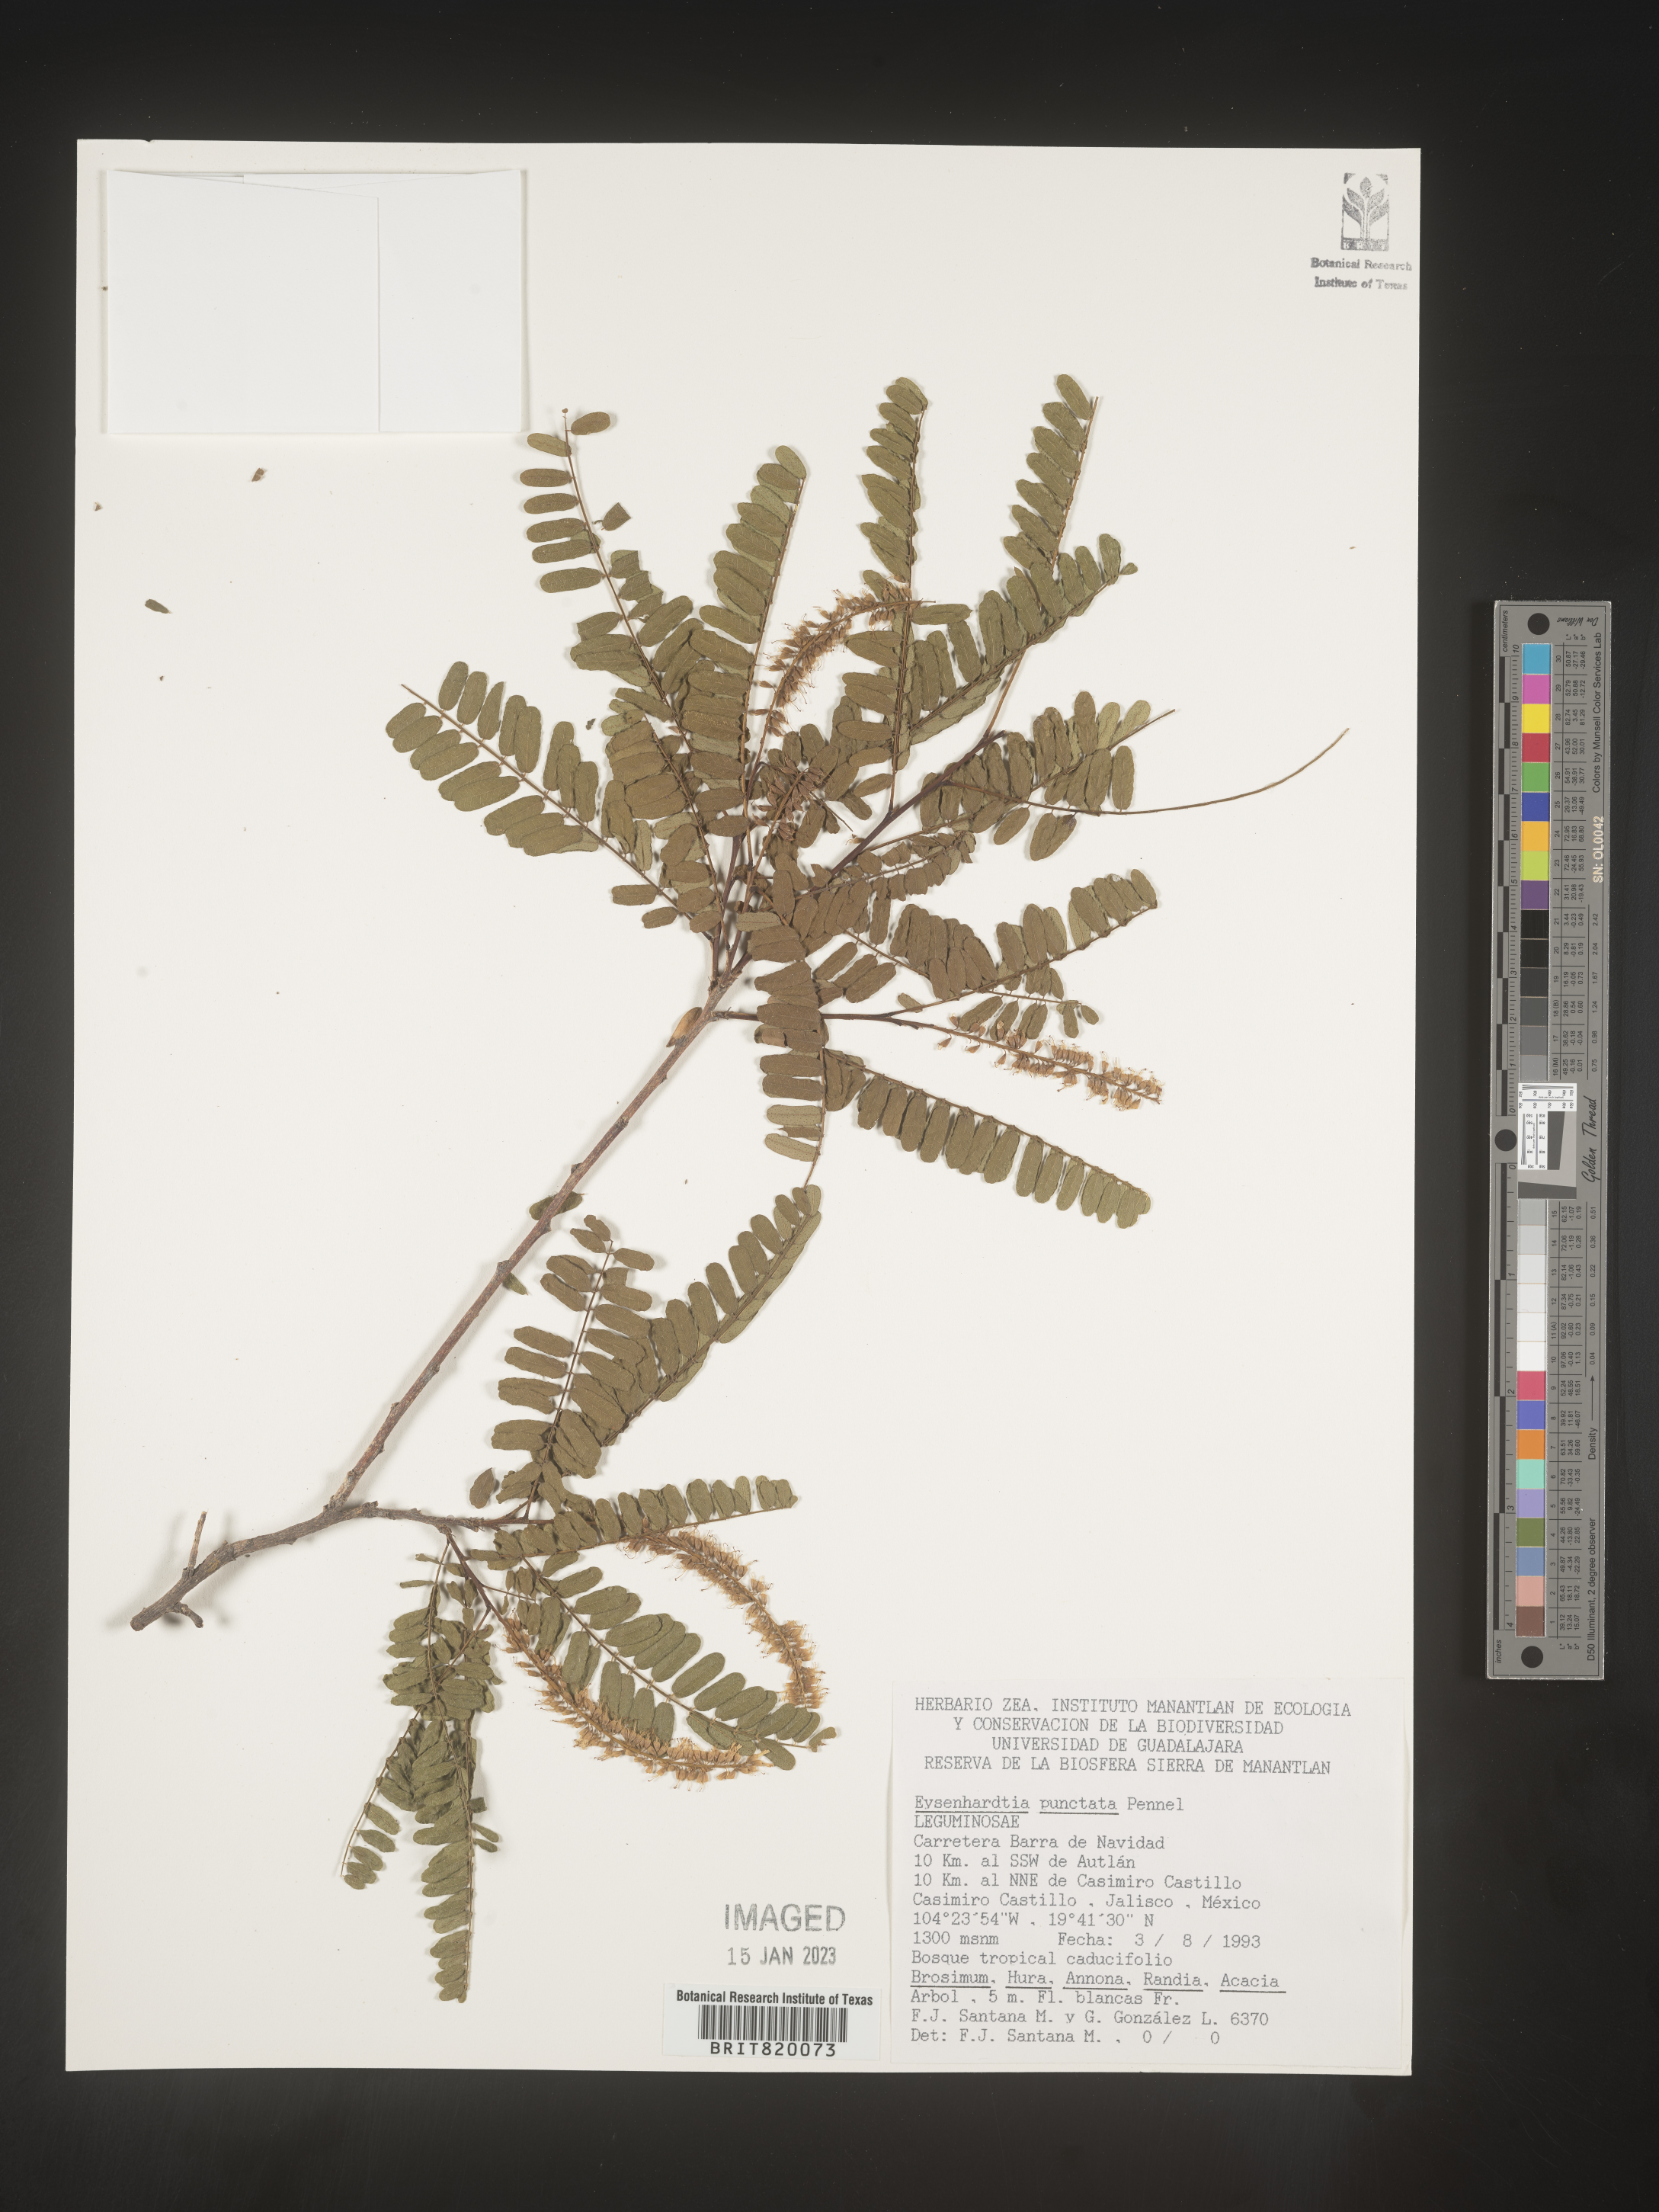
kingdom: Plantae
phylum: Tracheophyta
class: Magnoliopsida
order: Fabales
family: Fabaceae
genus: Eysenhardtia
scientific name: Eysenhardtia
